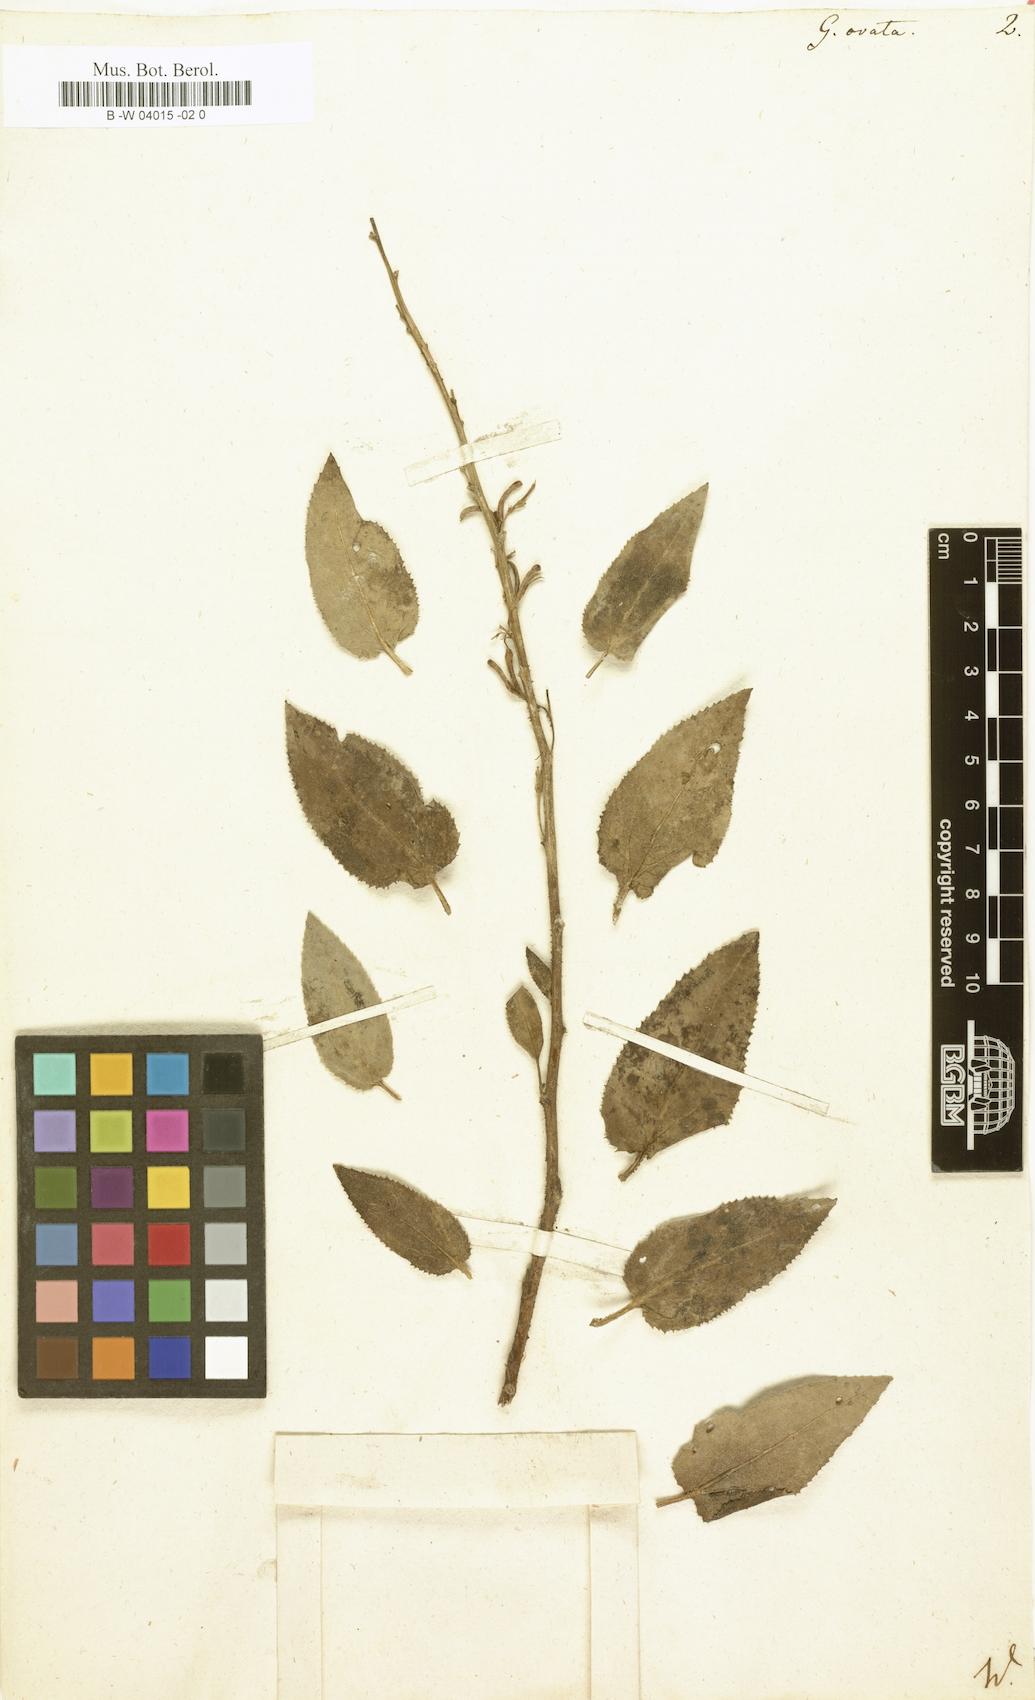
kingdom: Plantae
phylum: Tracheophyta
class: Magnoliopsida
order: Asterales
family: Goodeniaceae
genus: Goodenia
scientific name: Goodenia ovata
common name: Hop goodenia
